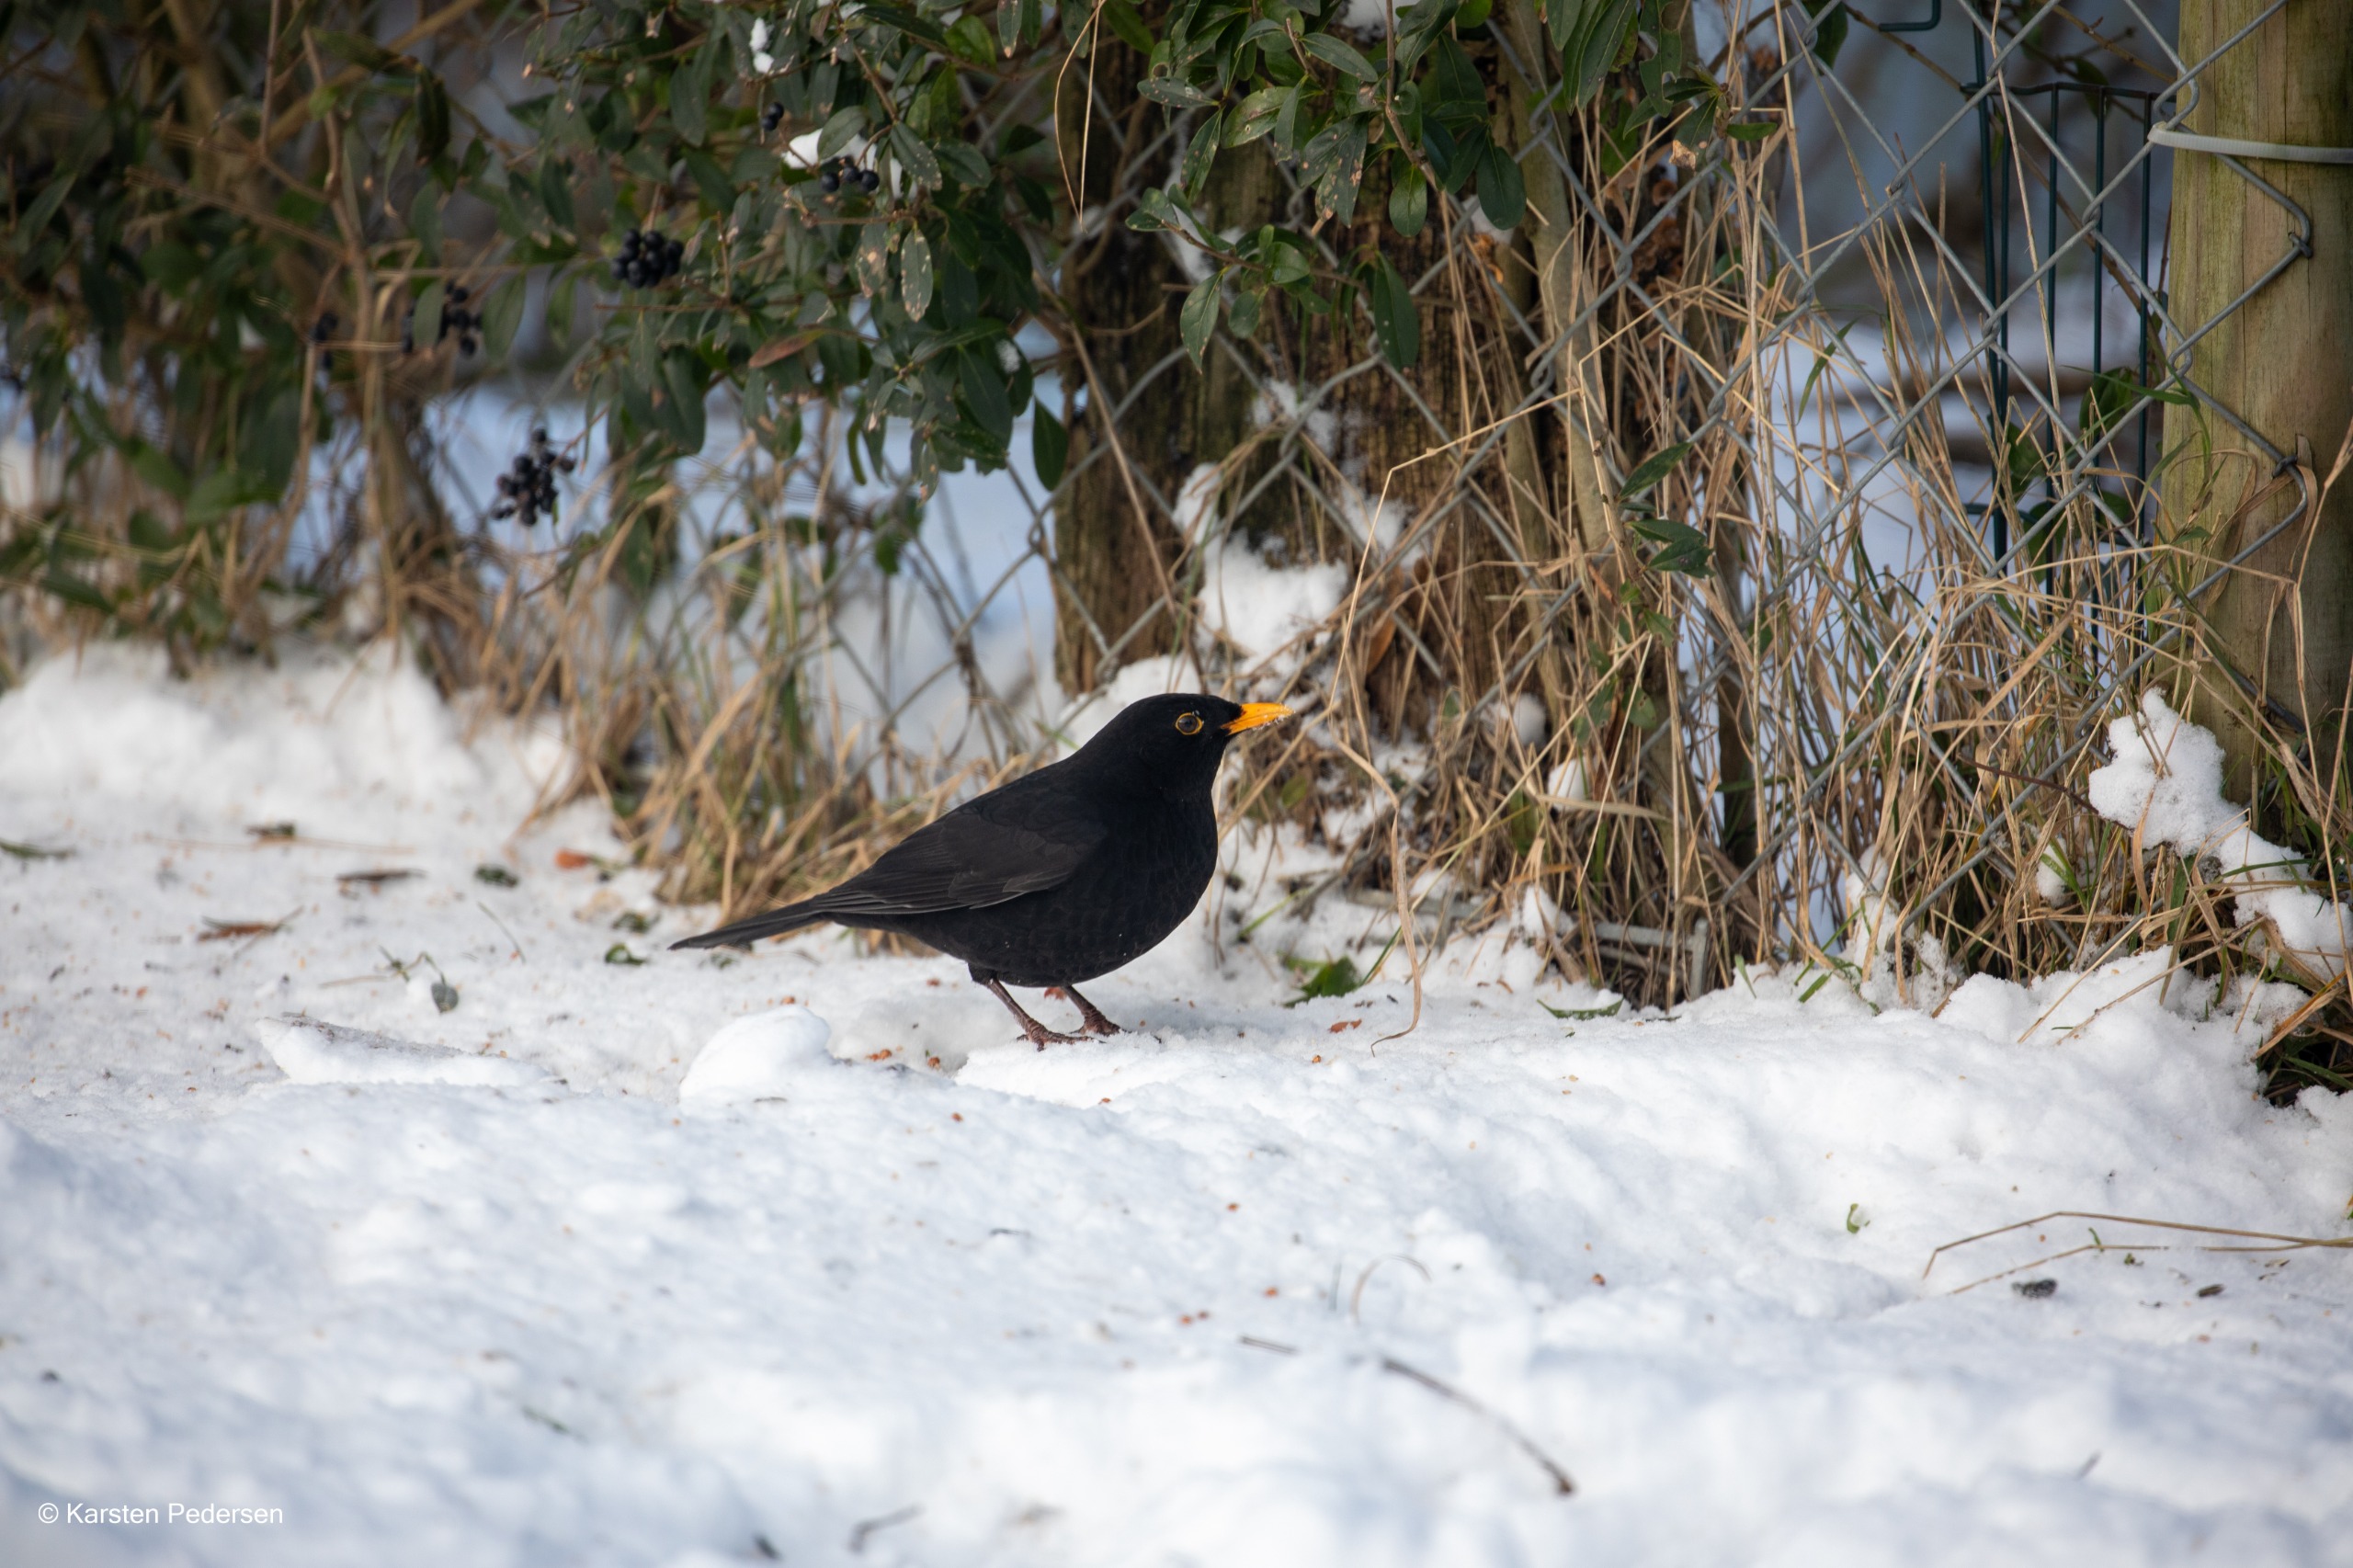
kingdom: Animalia
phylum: Chordata
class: Aves
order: Passeriformes
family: Turdidae
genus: Turdus
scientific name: Turdus merula
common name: Solsort
